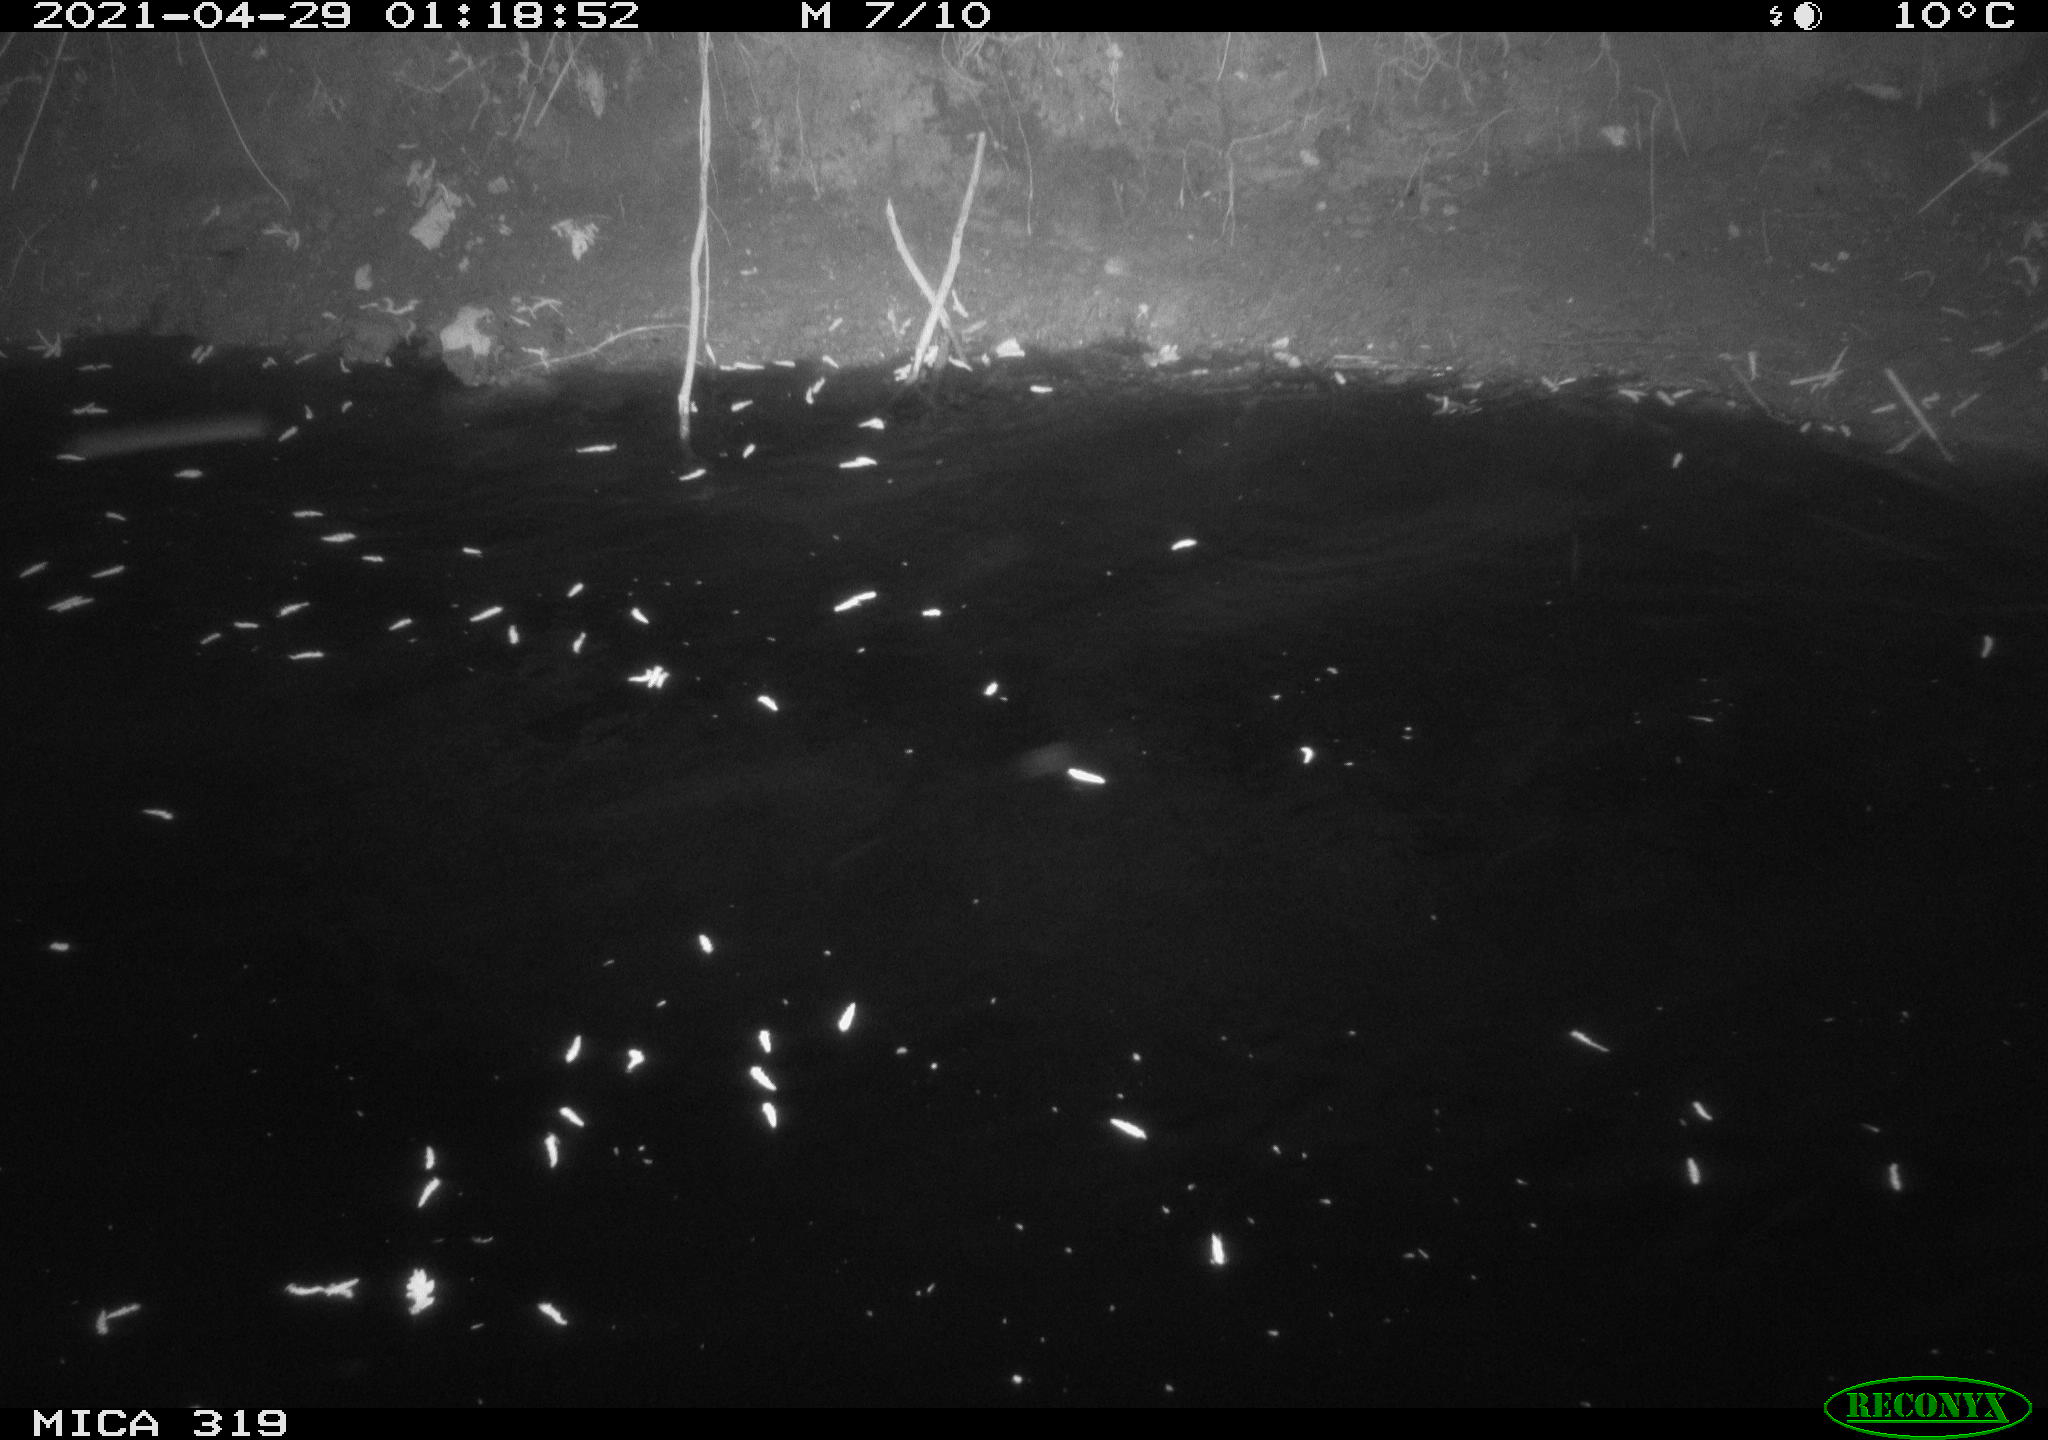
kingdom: Animalia
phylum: Chordata
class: Aves
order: Anseriformes
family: Anatidae
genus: Anas
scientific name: Anas platyrhynchos
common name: Mallard
